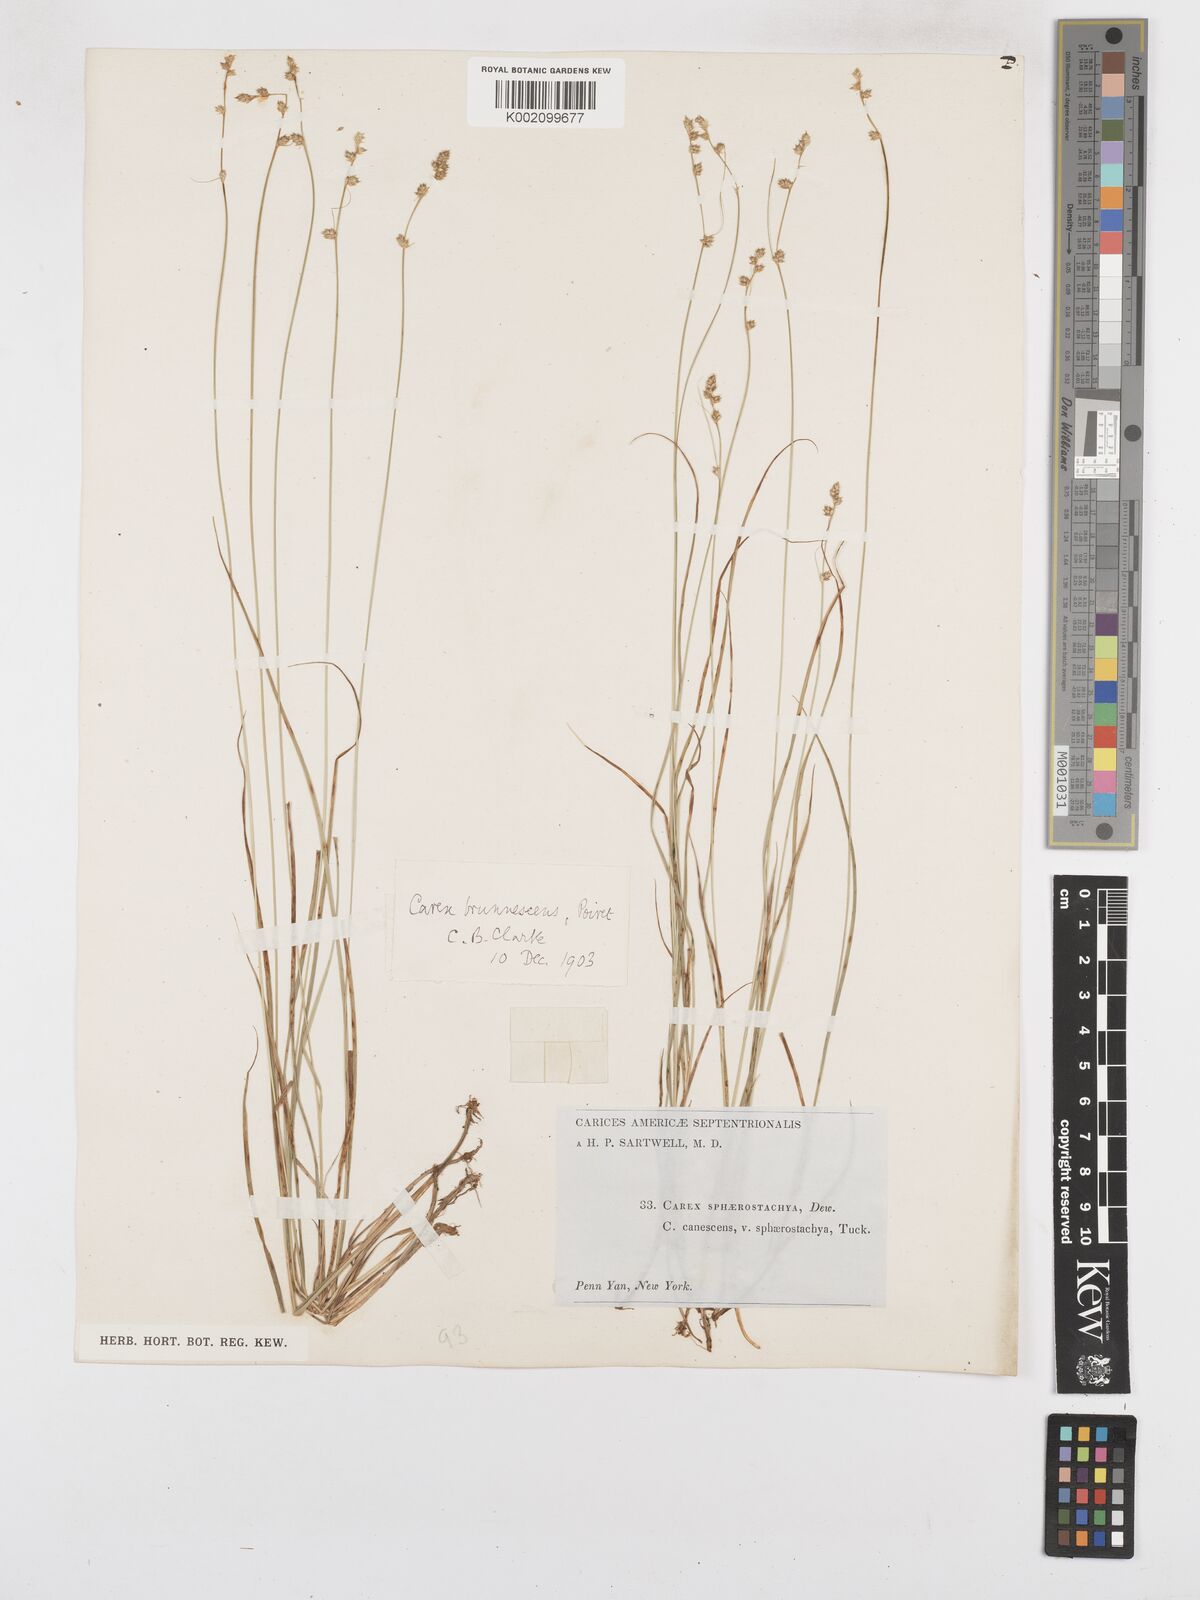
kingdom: Plantae
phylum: Tracheophyta
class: Liliopsida
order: Poales
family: Cyperaceae
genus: Carex
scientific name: Carex brunnescens
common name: Brown sedge
